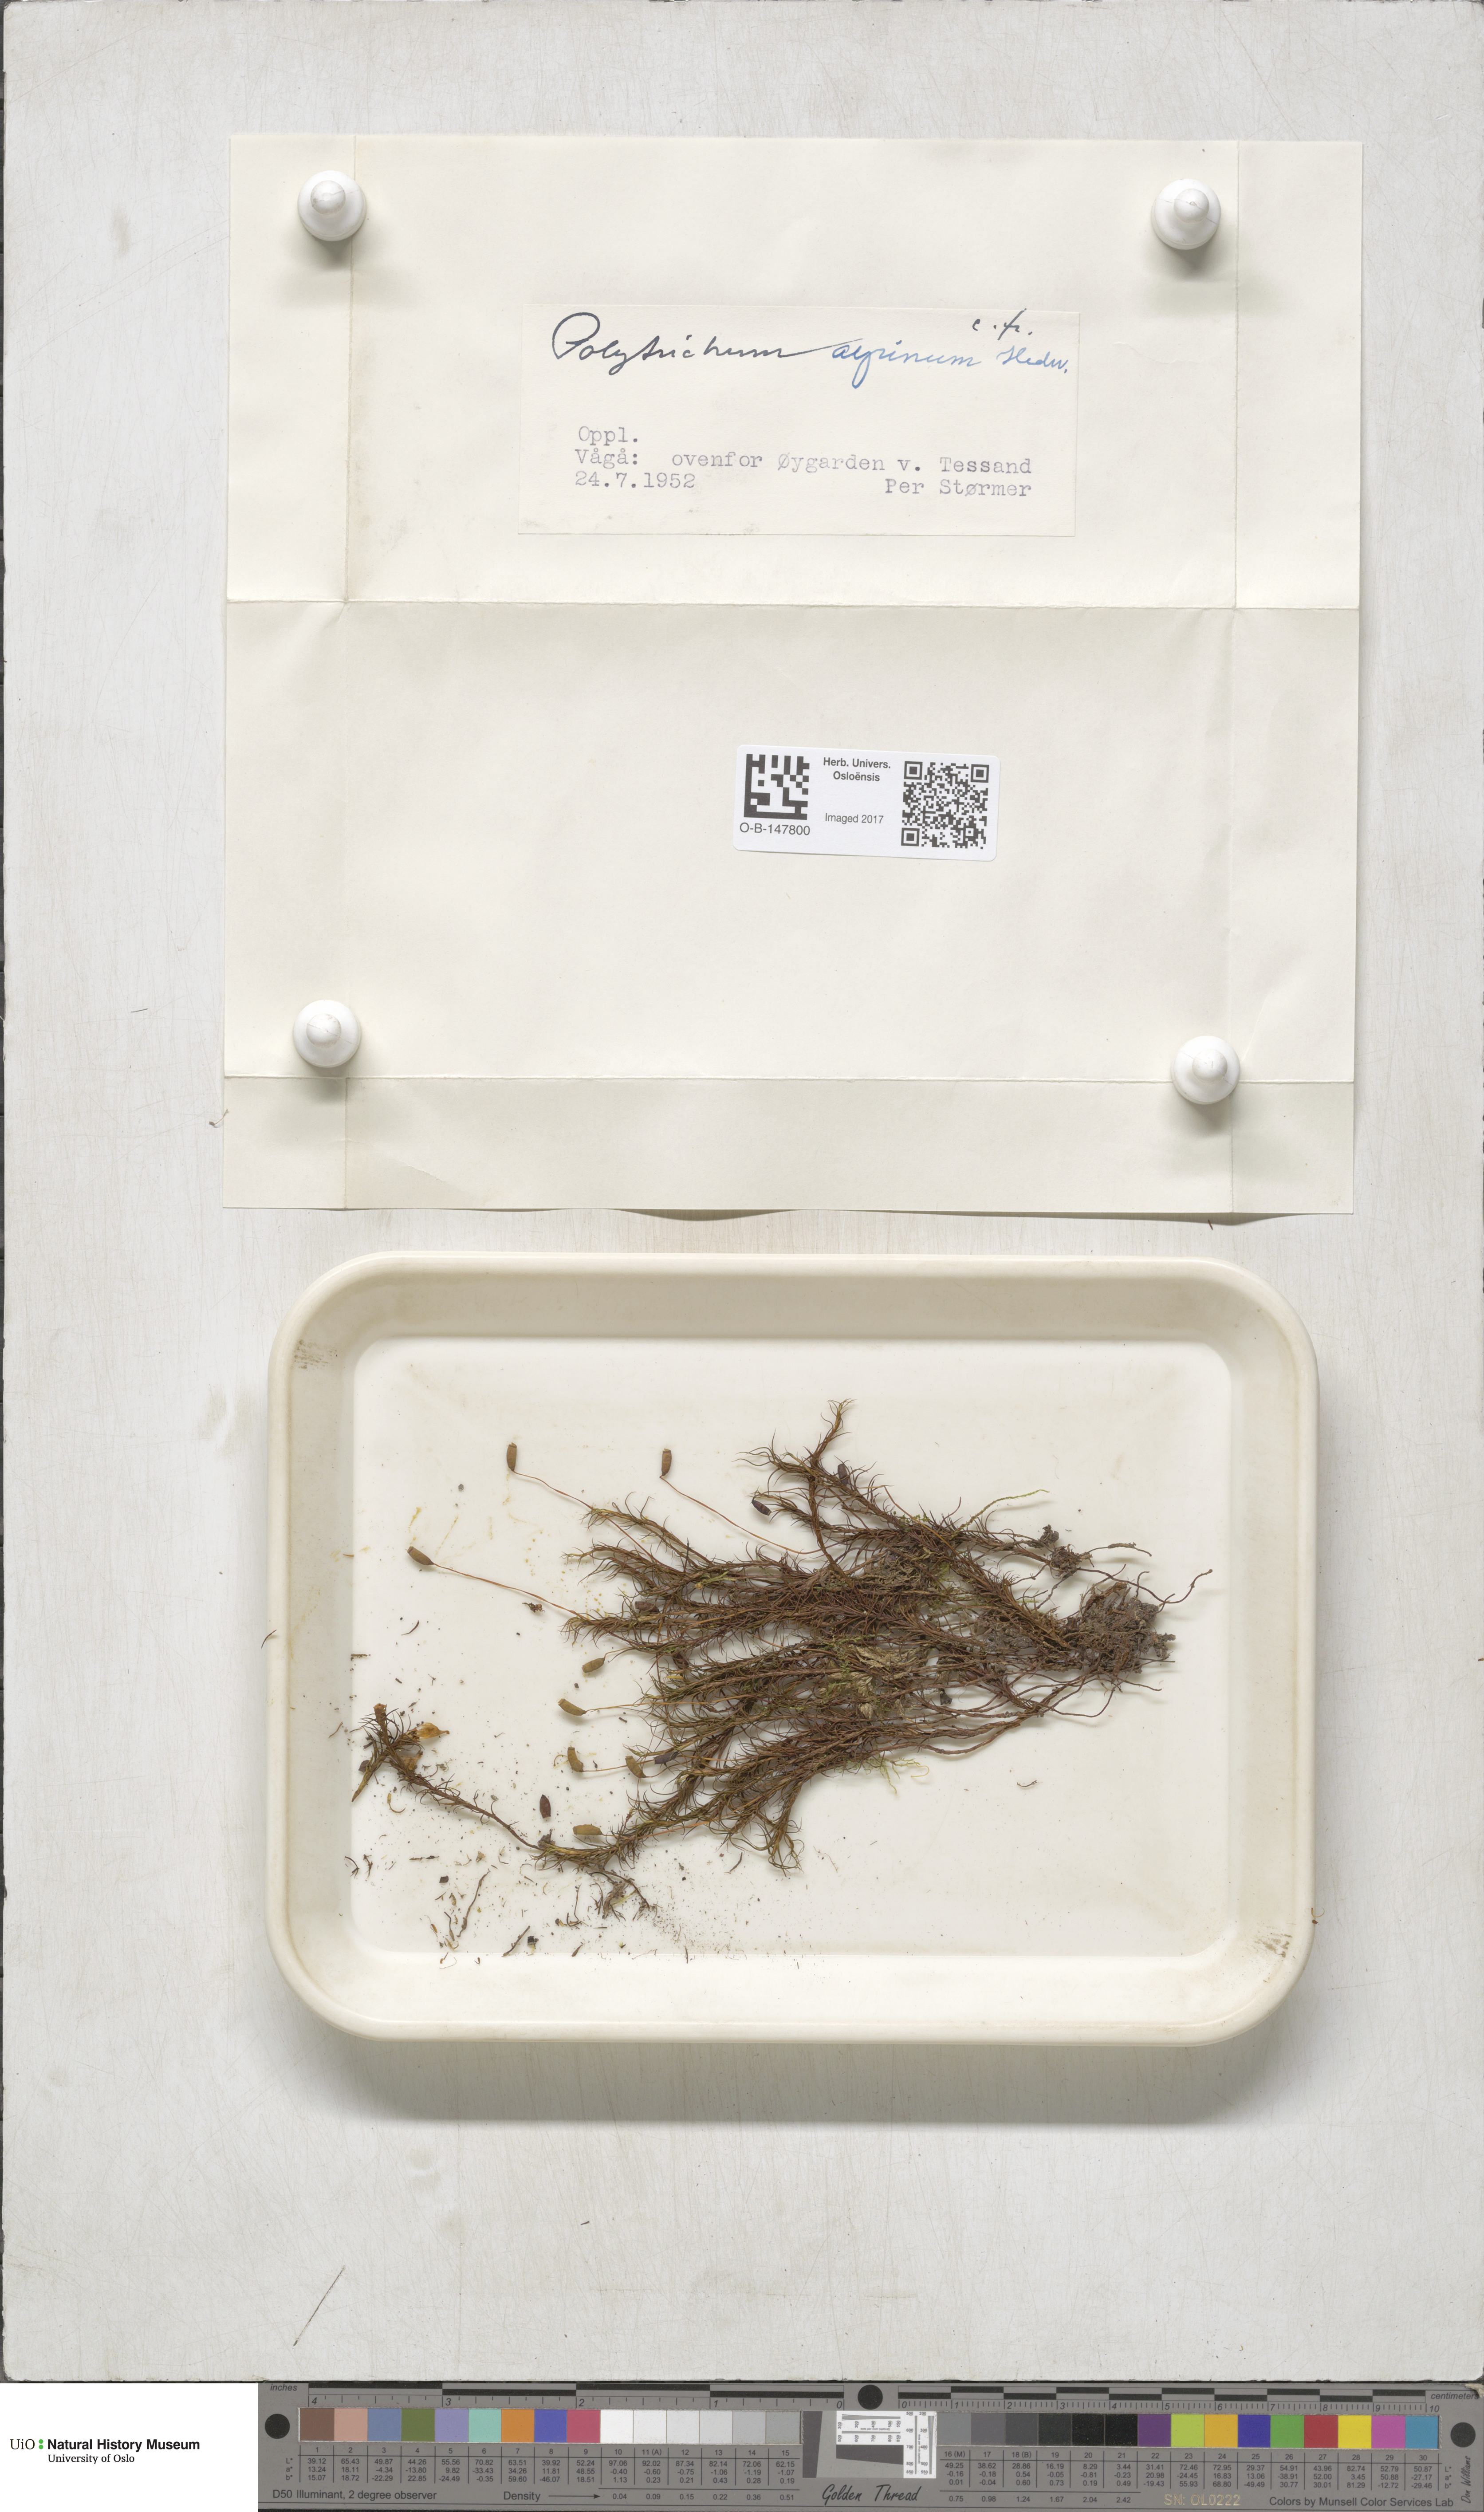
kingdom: Plantae
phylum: Bryophyta
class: Polytrichopsida
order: Polytrichales
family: Polytrichaceae
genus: Polytrichastrum
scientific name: Polytrichastrum alpinum
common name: Alpine haircap
